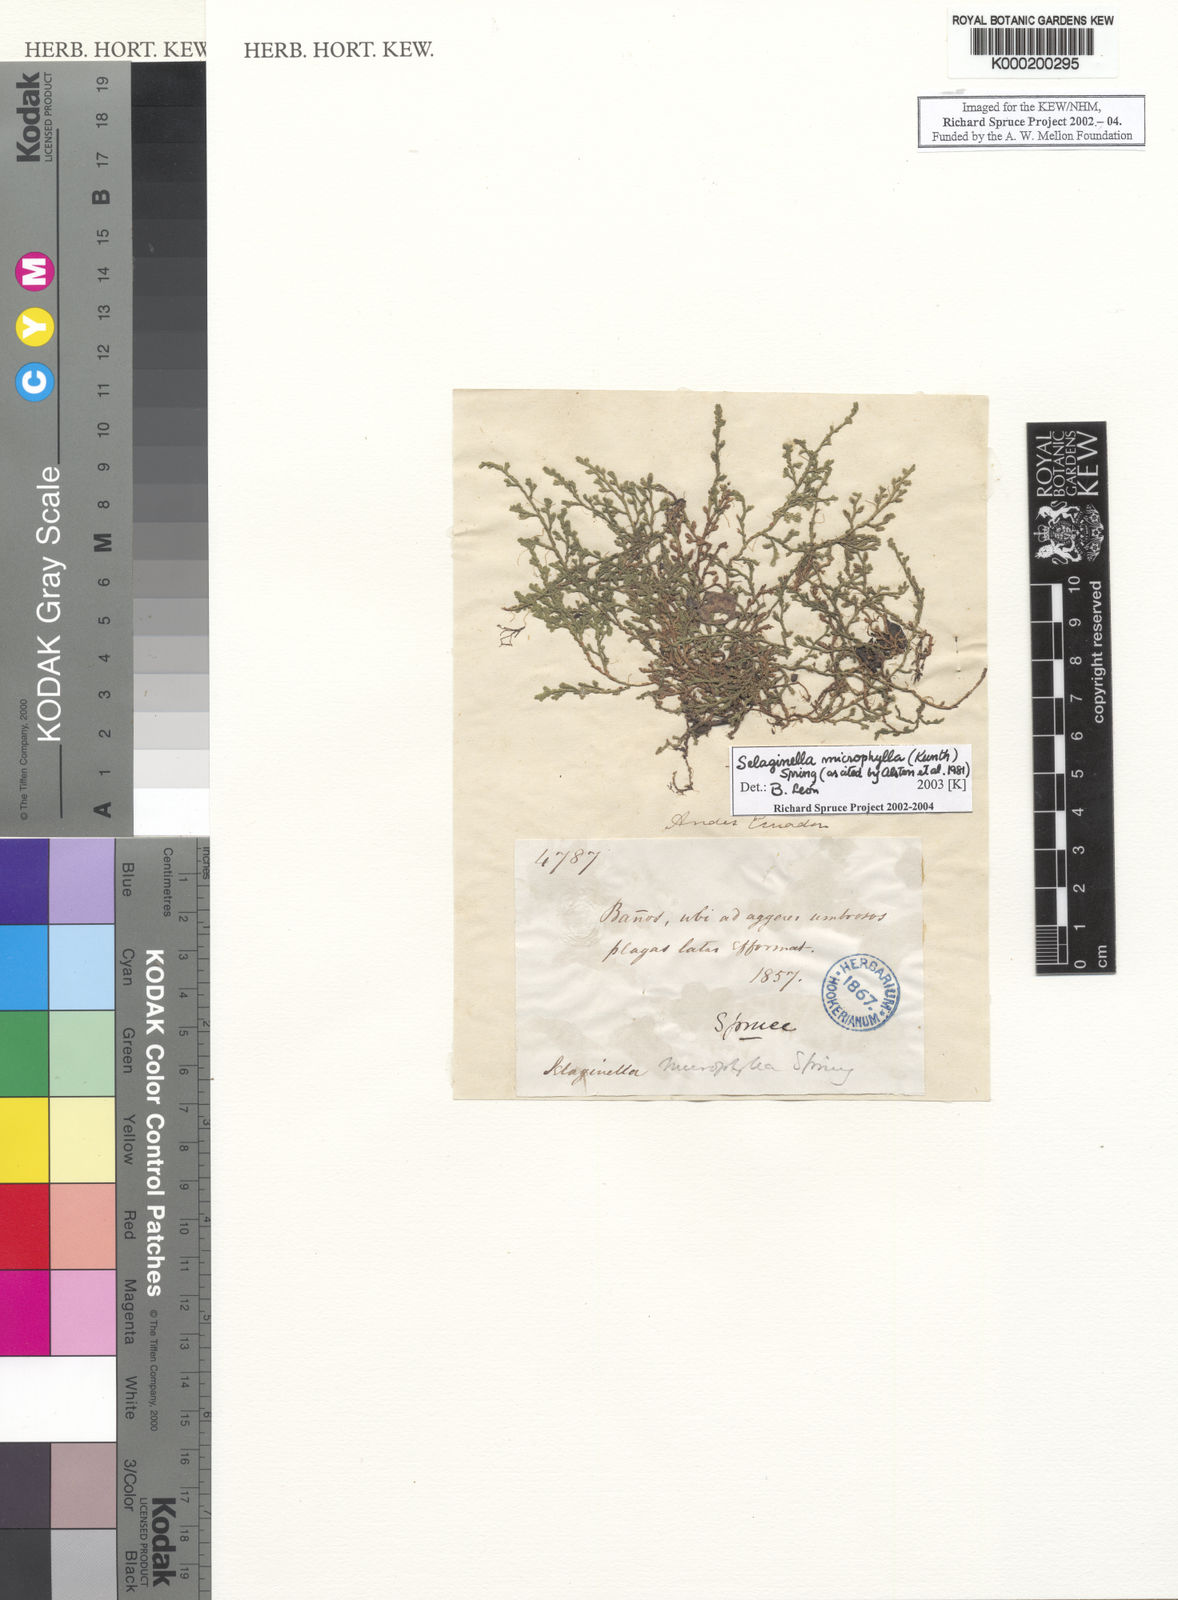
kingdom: Plantae
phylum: Tracheophyta
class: Lycopodiopsida
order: Selaginellales
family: Selaginellaceae
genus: Selaginella
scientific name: Selaginella microphylla
